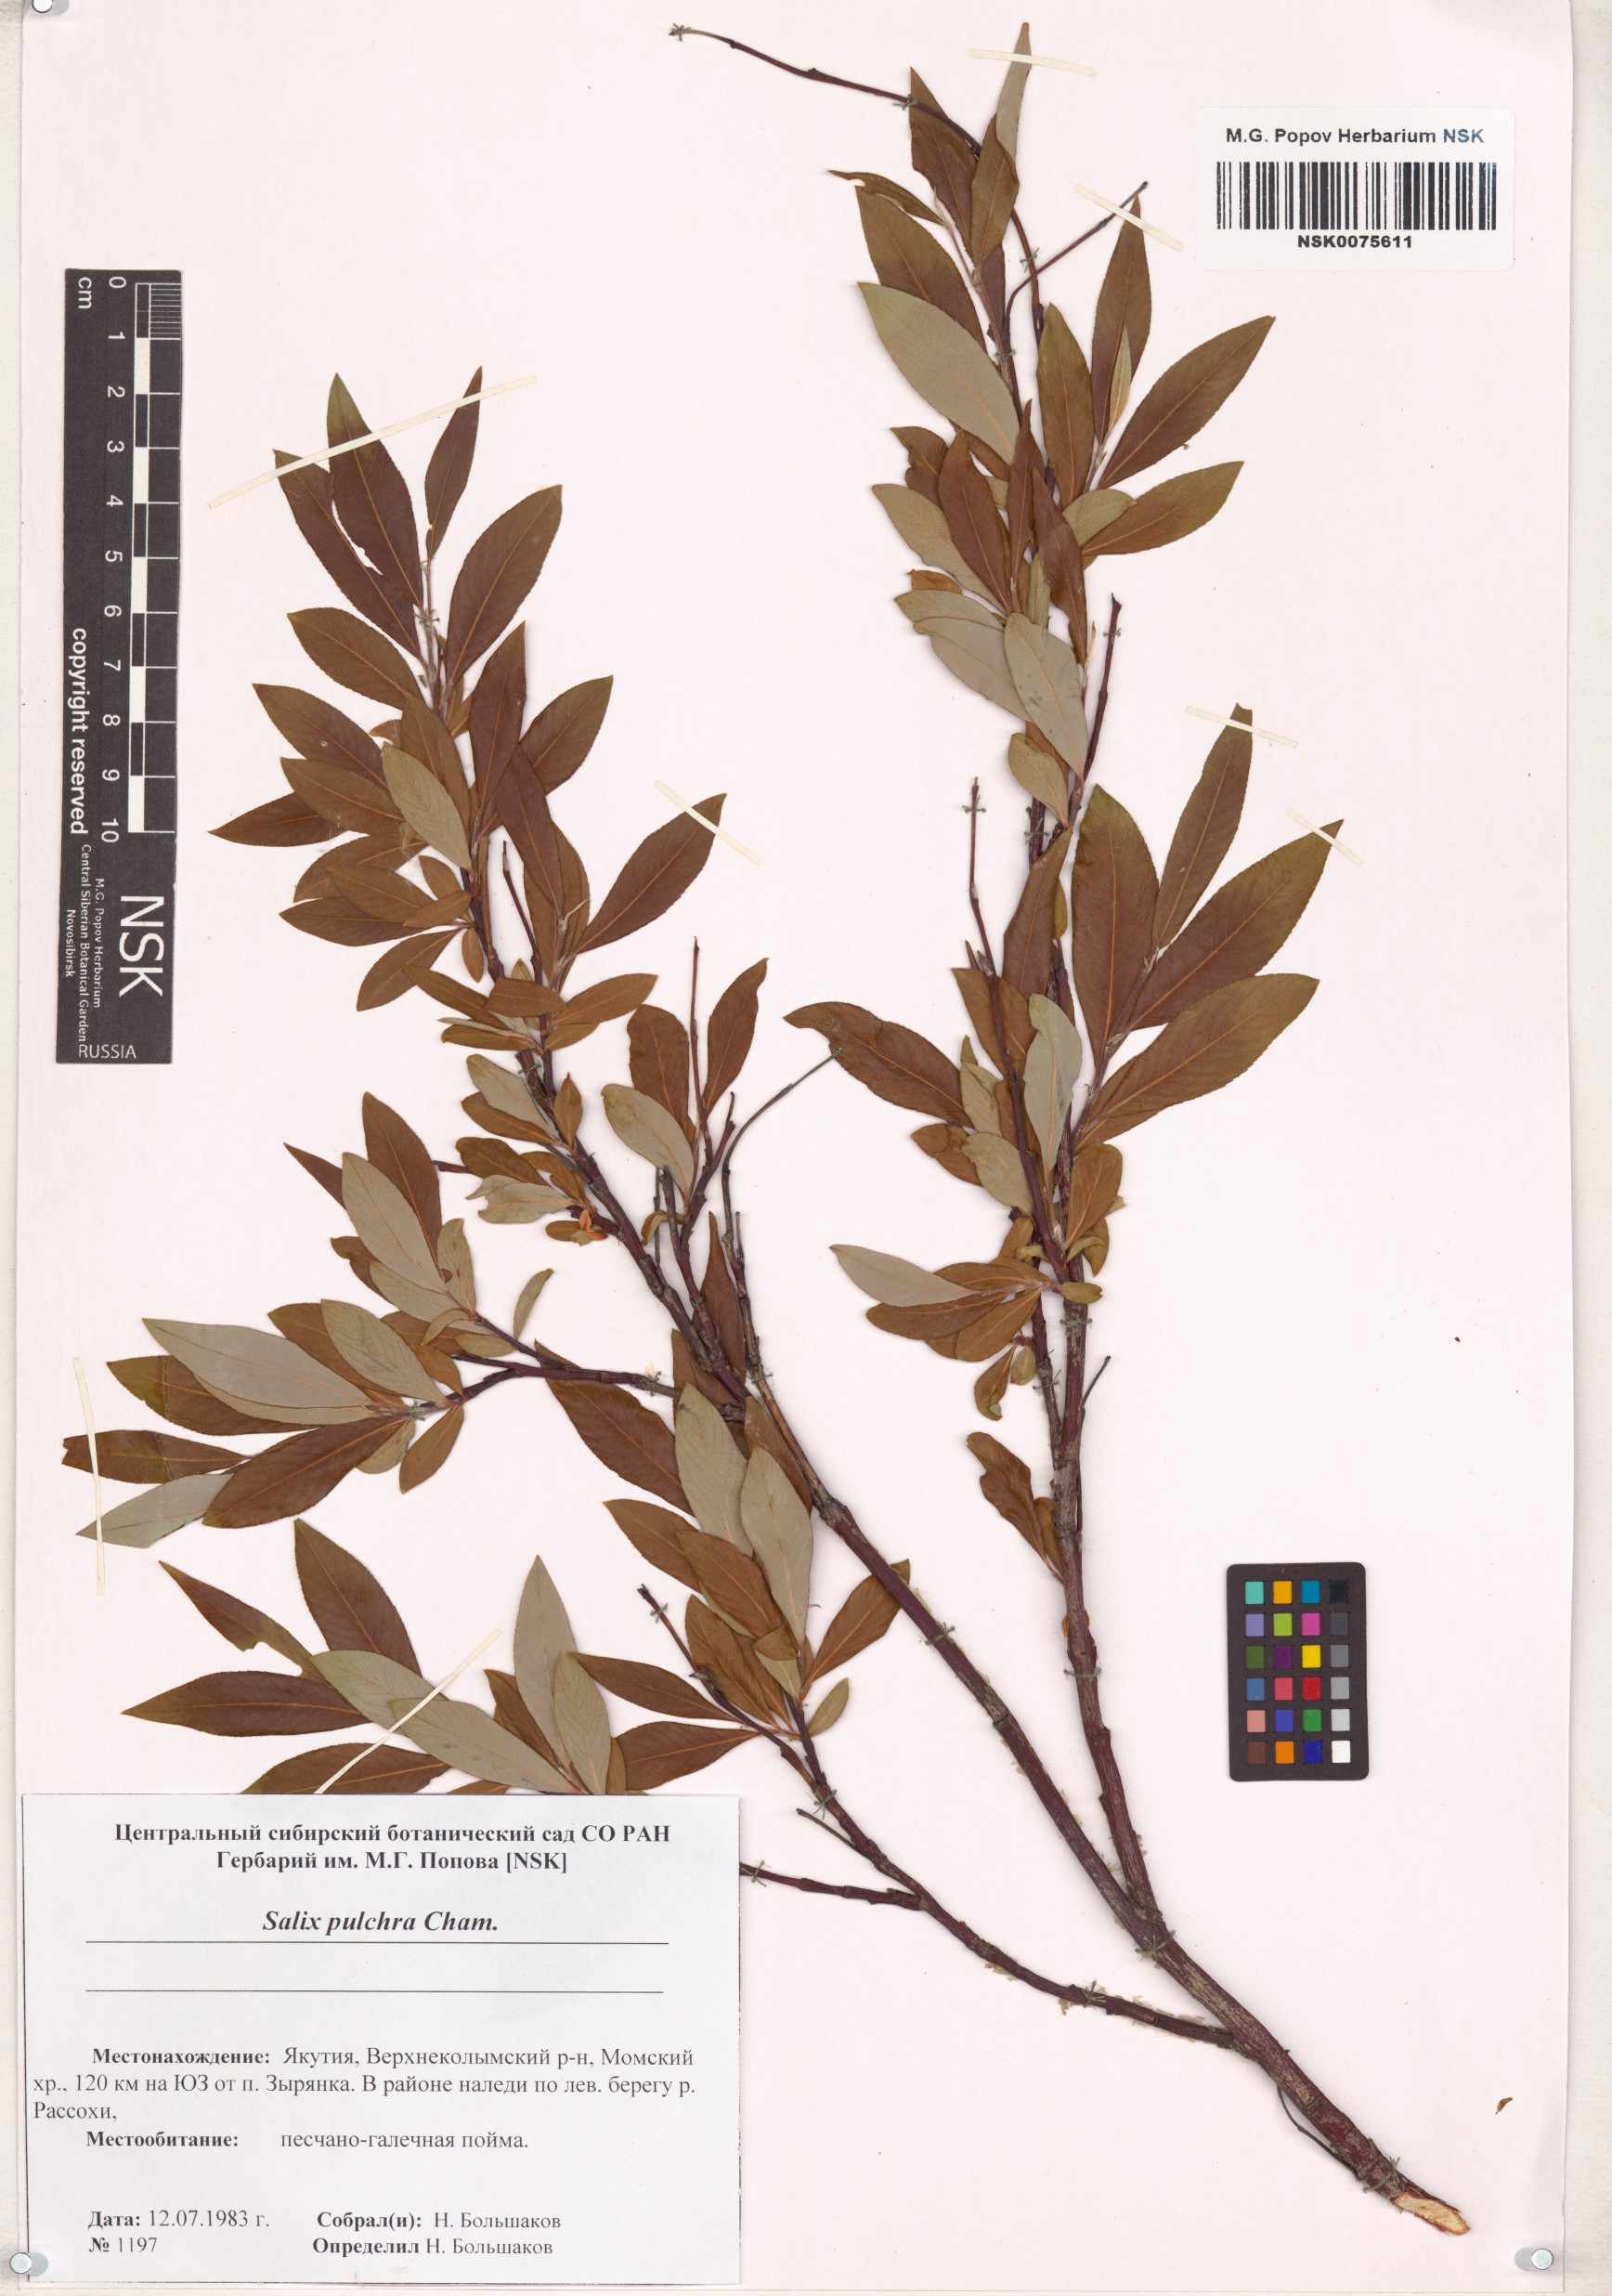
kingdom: Plantae
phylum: Tracheophyta
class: Magnoliopsida
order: Malpighiales
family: Salicaceae
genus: Salix
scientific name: Salix pulchra
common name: Diamond-leaved willow
